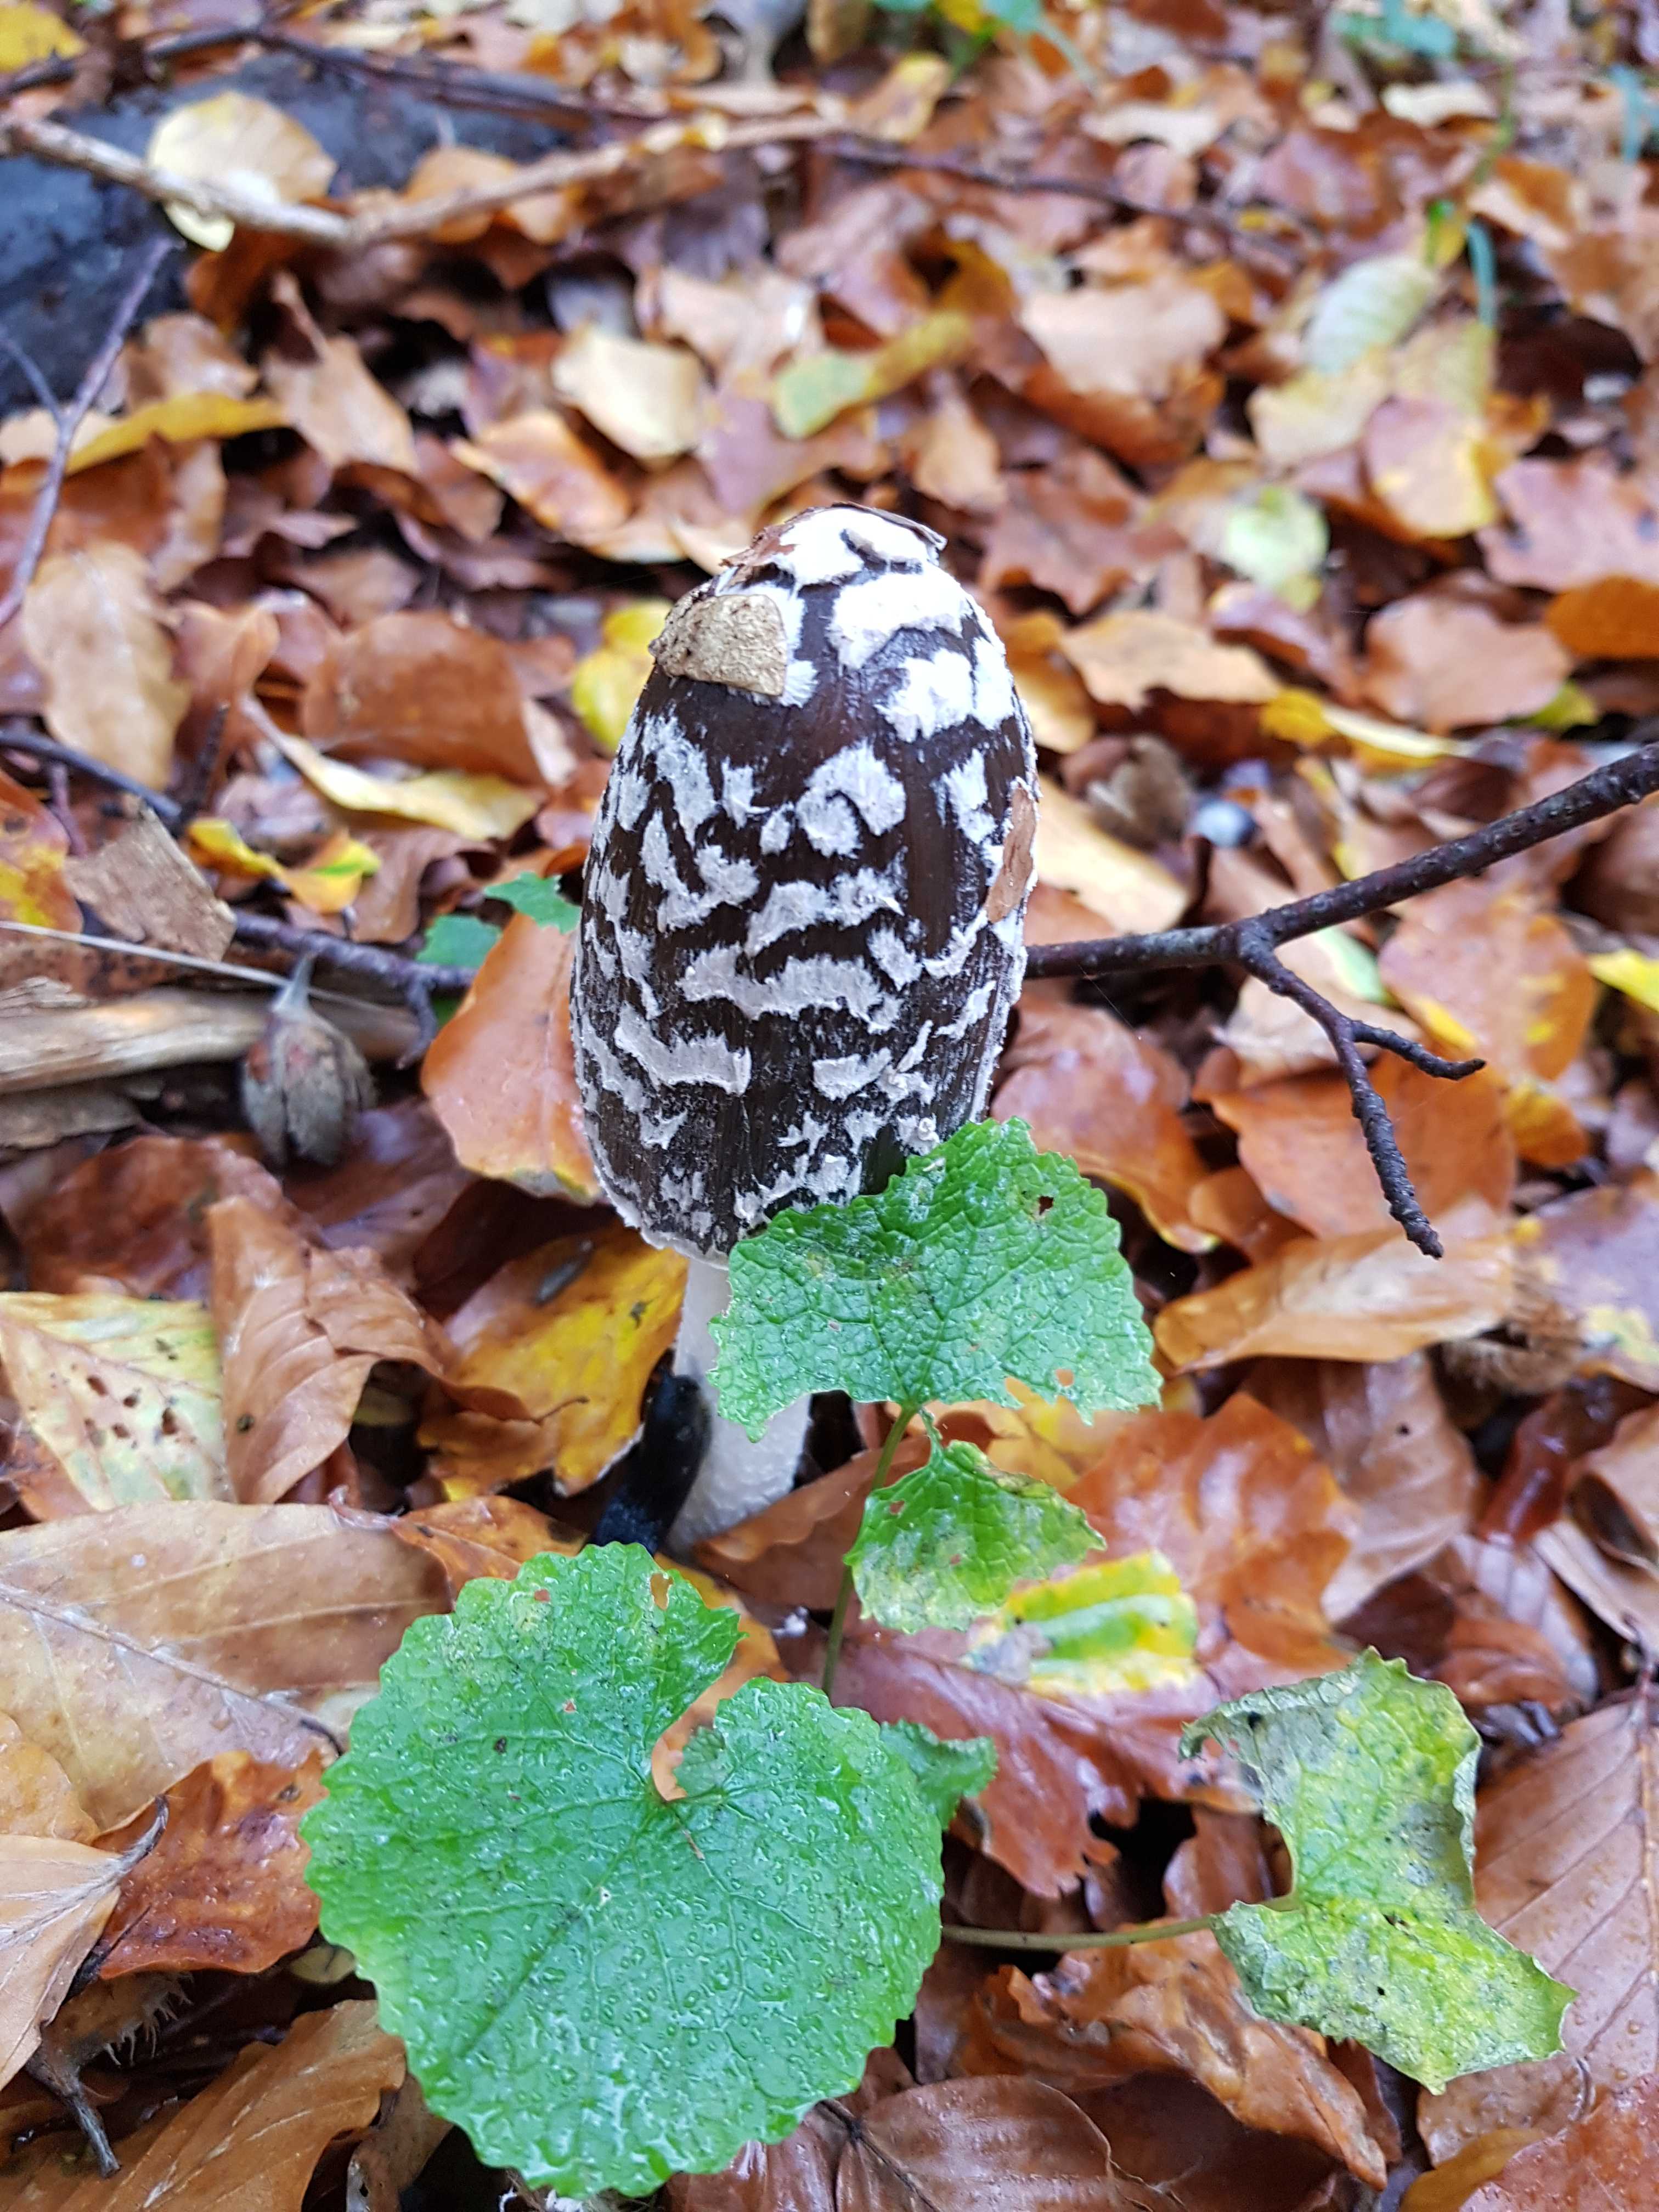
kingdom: Fungi
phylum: Basidiomycota
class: Agaricomycetes
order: Agaricales
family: Psathyrellaceae
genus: Coprinopsis
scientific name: Coprinopsis picacea
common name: skade-blækhat
